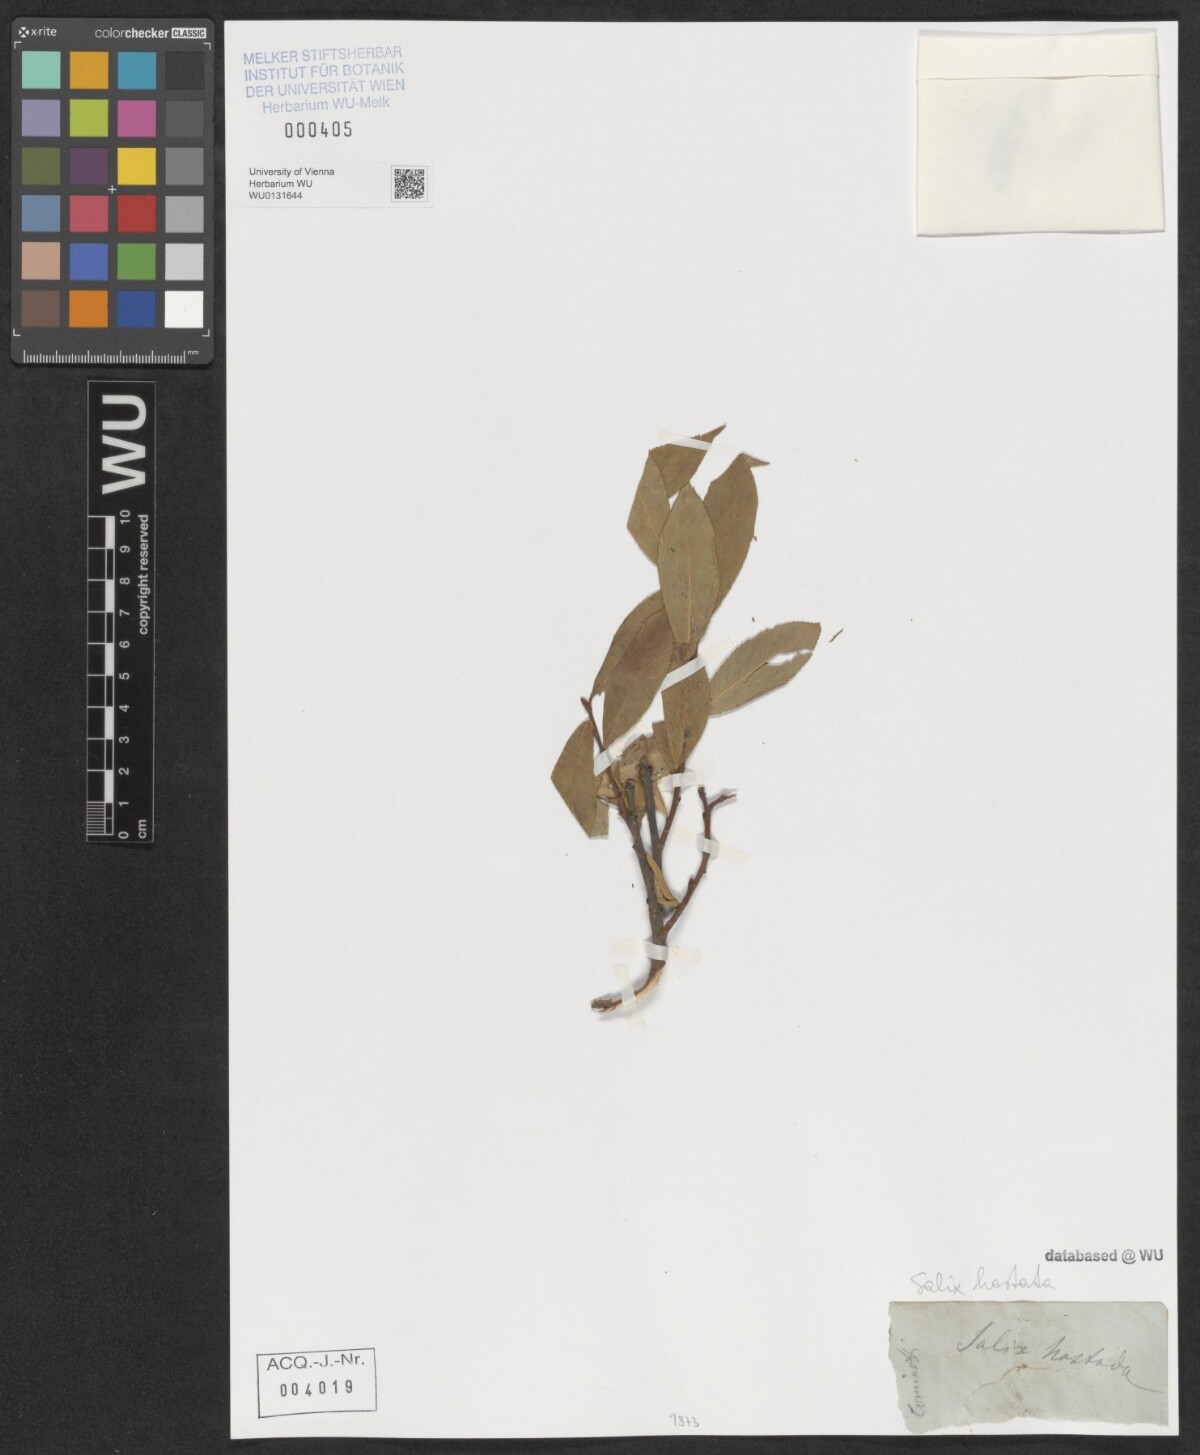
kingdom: Plantae
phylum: Tracheophyta
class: Magnoliopsida
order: Malpighiales
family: Salicaceae
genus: Salix
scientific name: Salix hastata
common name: Halberd willow
